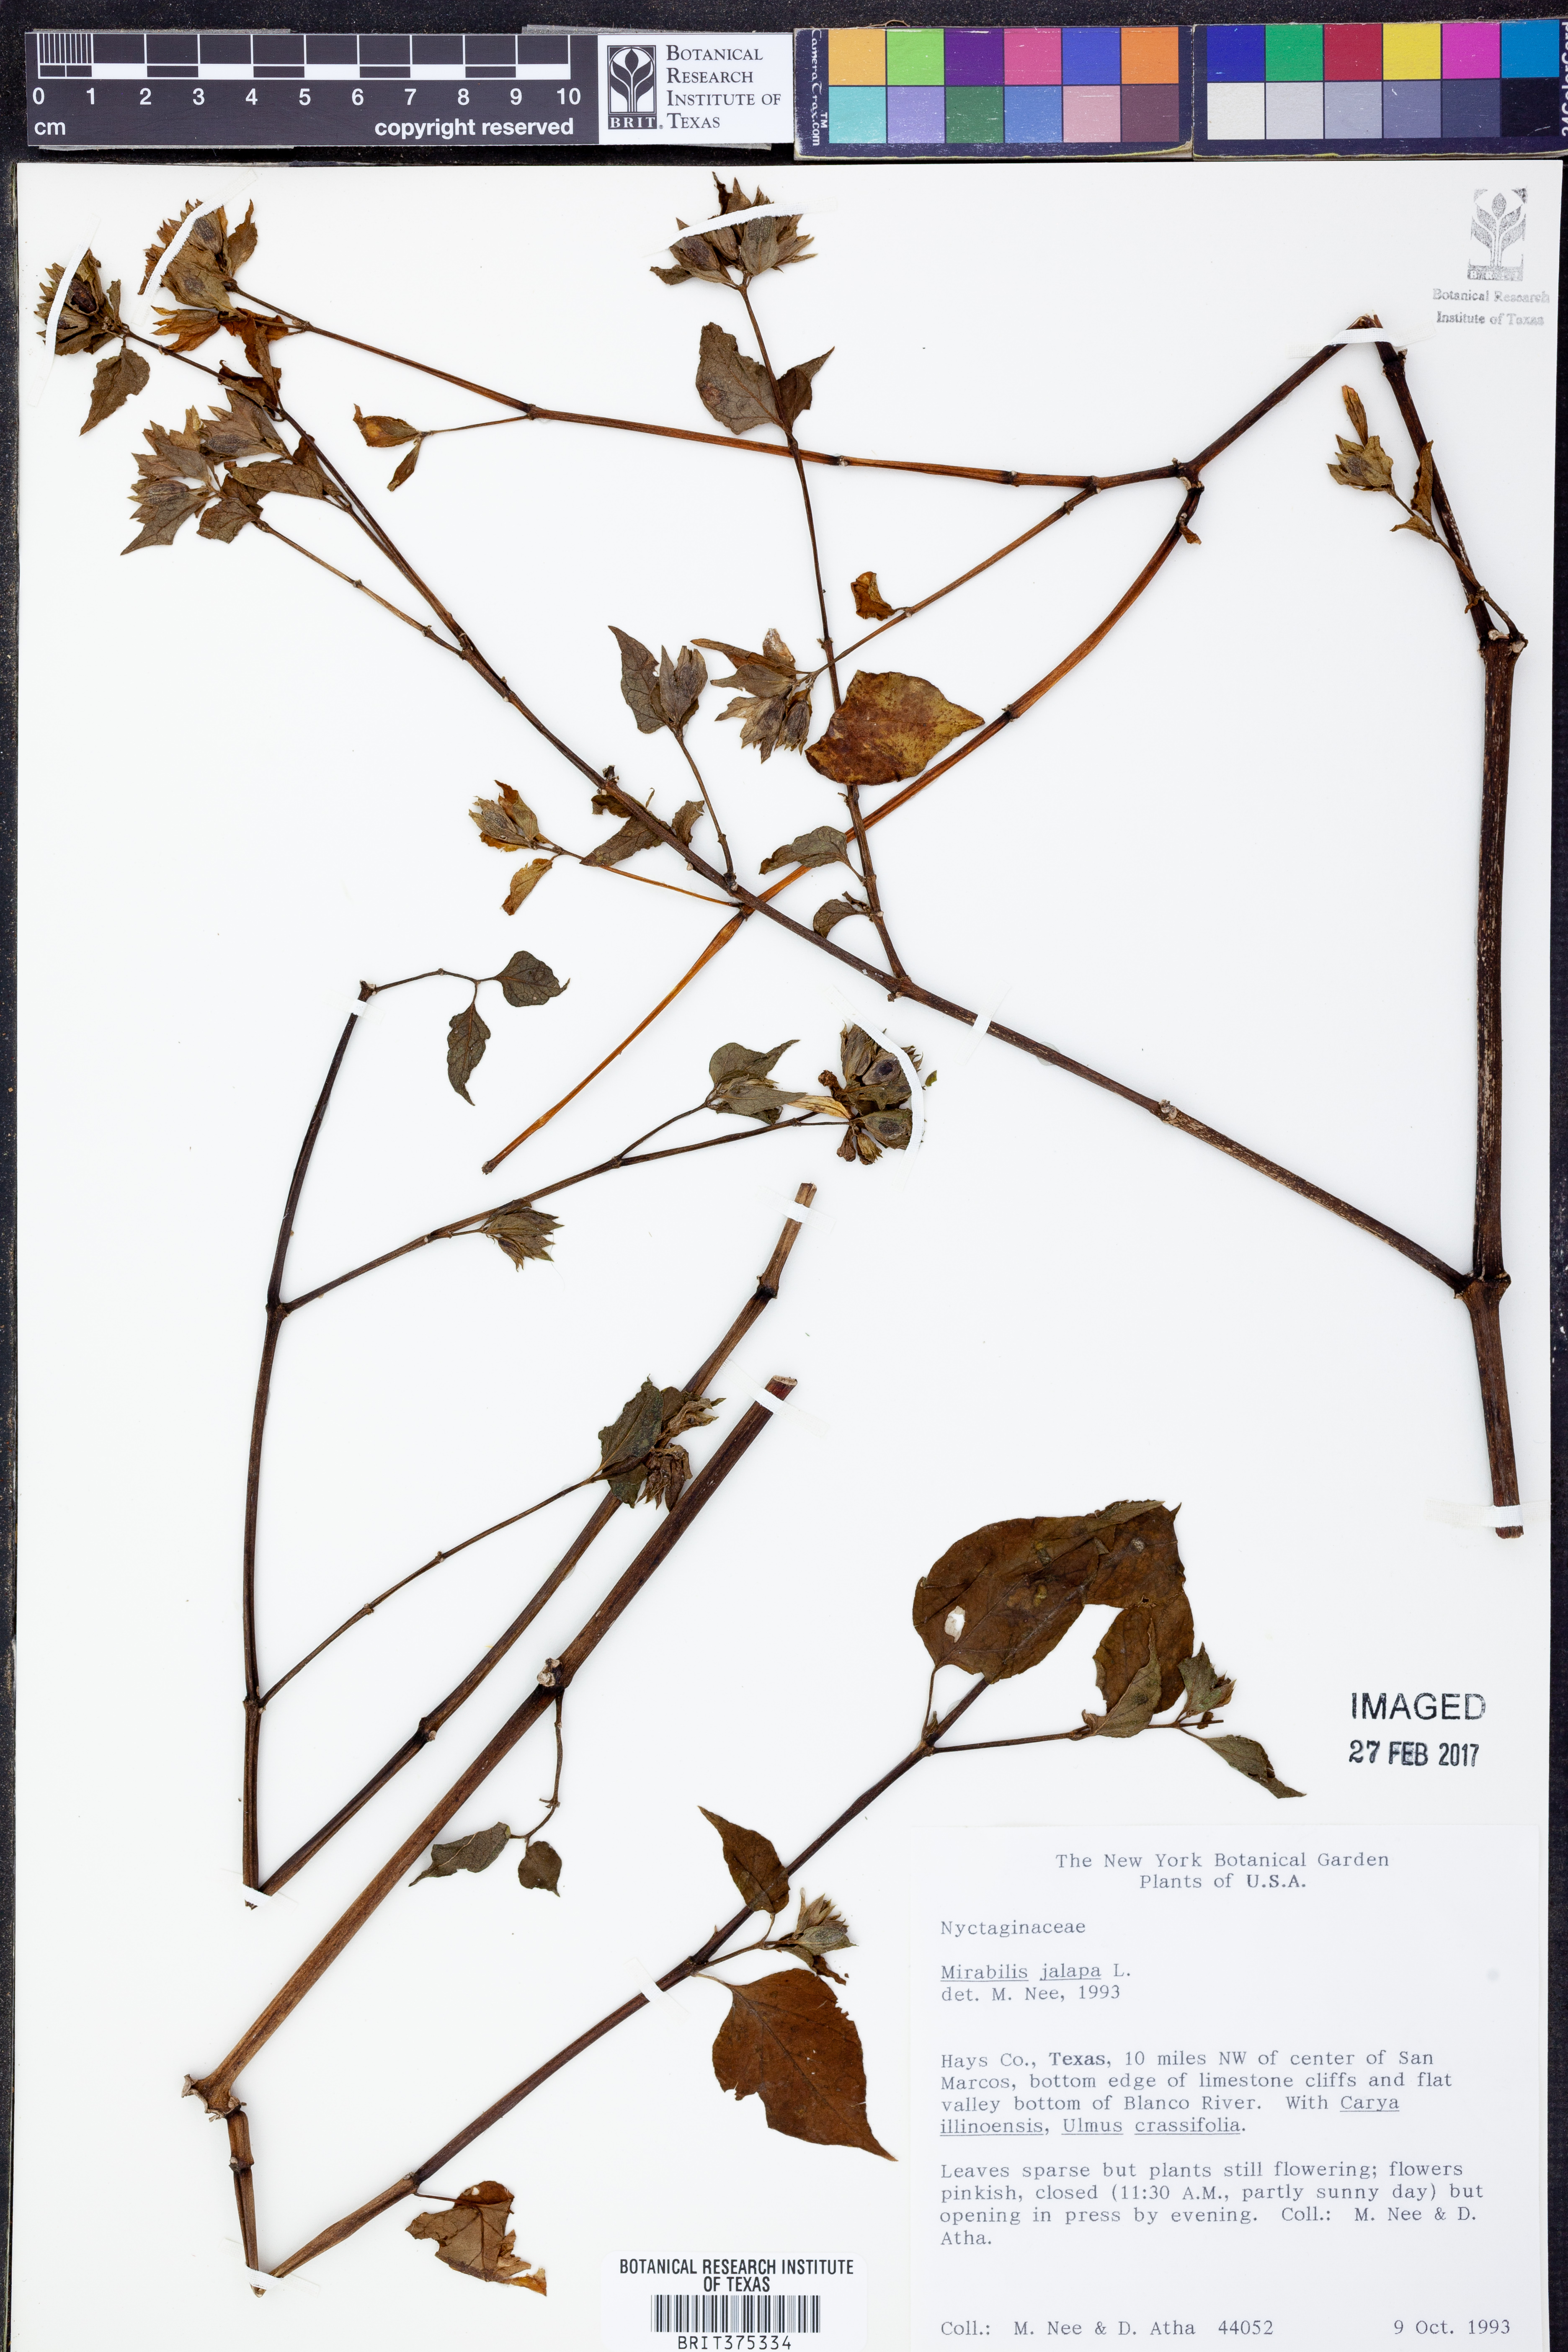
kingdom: Plantae
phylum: Tracheophyta
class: Magnoliopsida
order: Caryophyllales
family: Nyctaginaceae
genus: Mirabilis
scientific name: Mirabilis jalapa
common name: Marvel-of-peru
